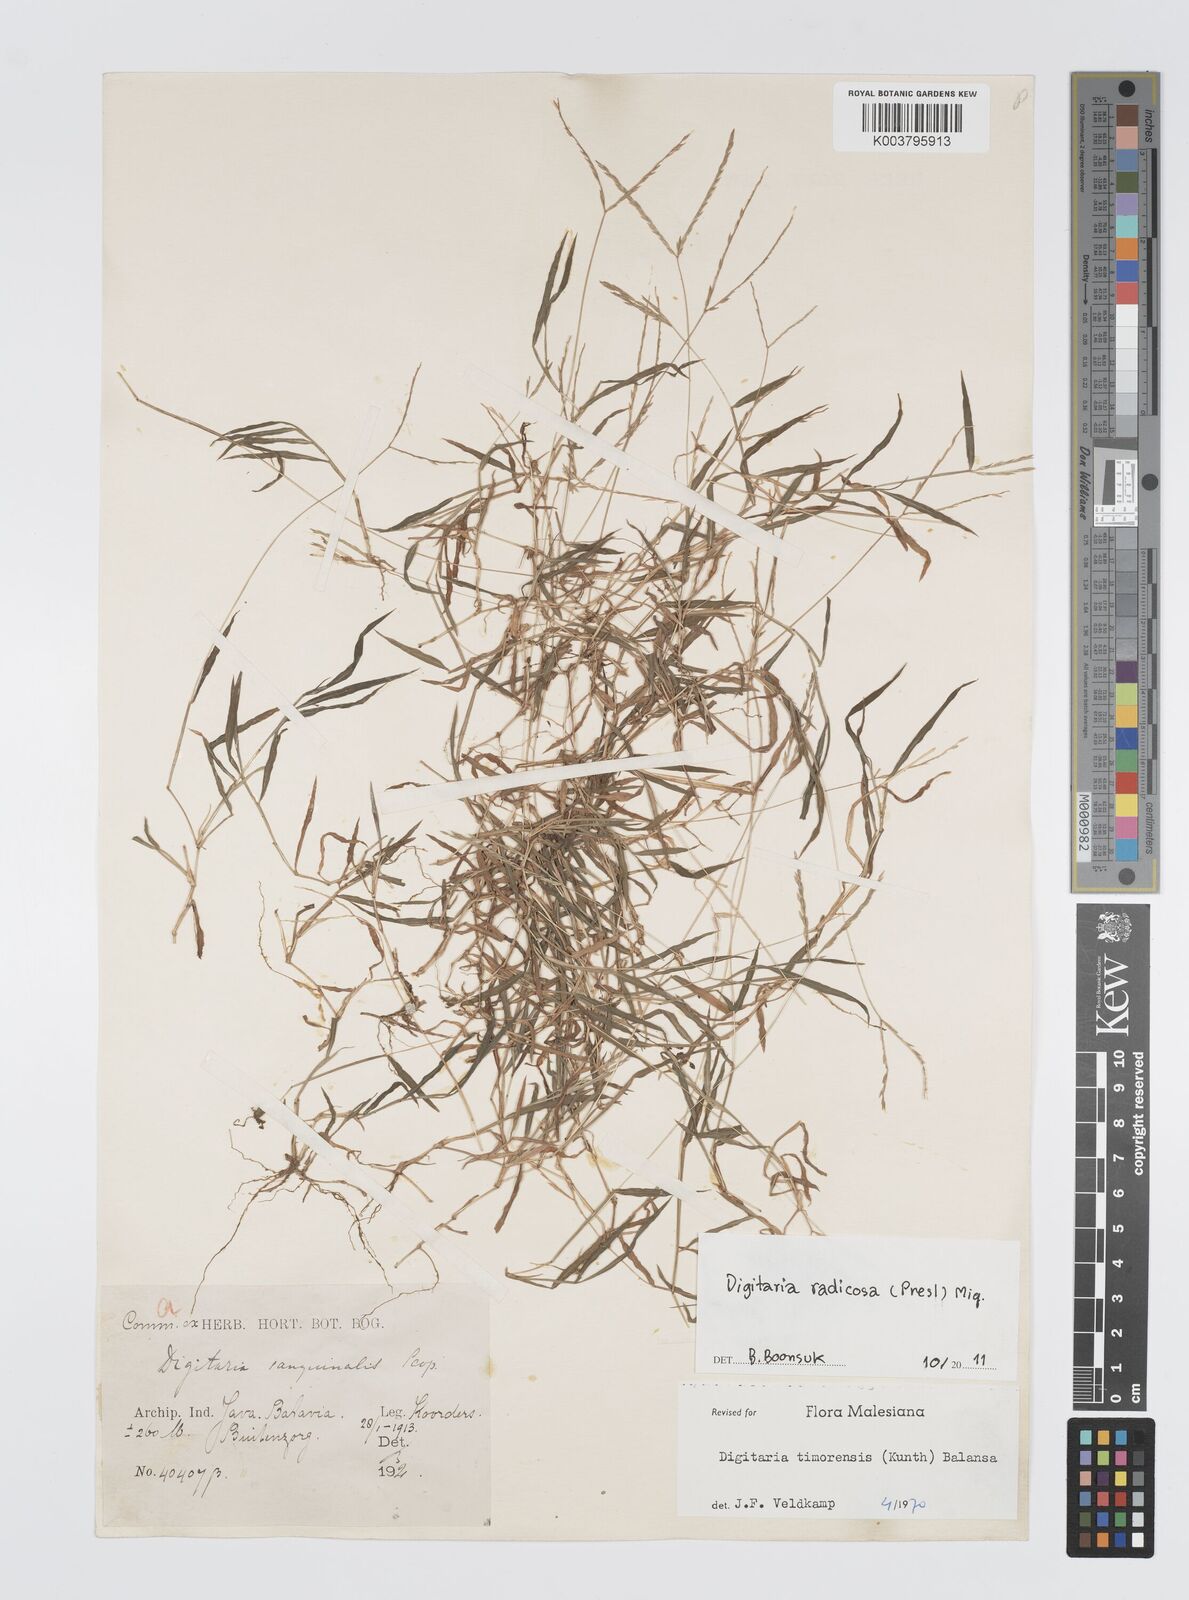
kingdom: Plantae
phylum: Tracheophyta
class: Liliopsida
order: Poales
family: Poaceae
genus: Digitaria
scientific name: Digitaria radicosa
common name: Trailing crabgrass
